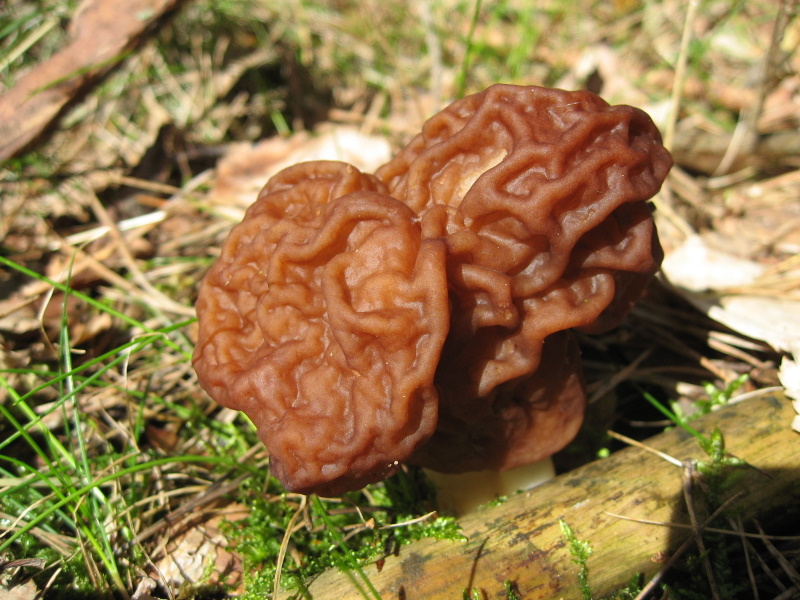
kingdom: Fungi
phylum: Ascomycota
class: Pezizomycetes
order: Pezizales
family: Discinaceae
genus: Gyromitra
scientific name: Gyromitra esculenta
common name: ægte stenmorkel
